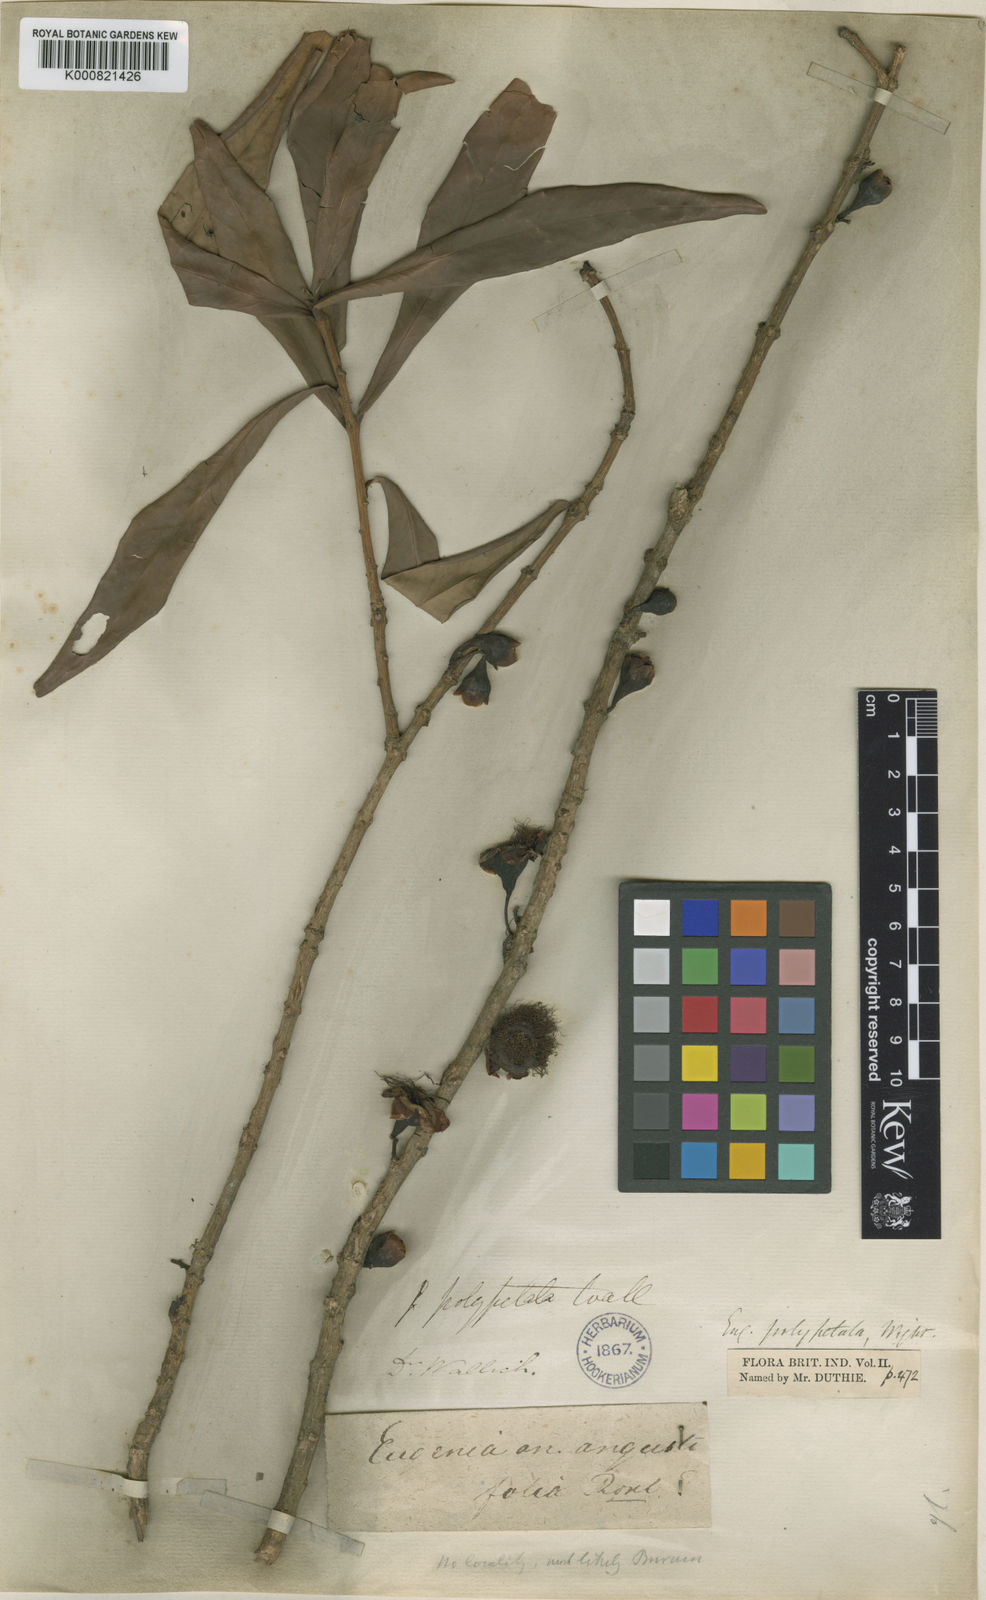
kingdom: Plantae
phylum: Tracheophyta
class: Magnoliopsida
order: Myrtales
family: Myrtaceae
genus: Syzygium
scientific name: Syzygium polyanthum
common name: Indonesian bayleaf
